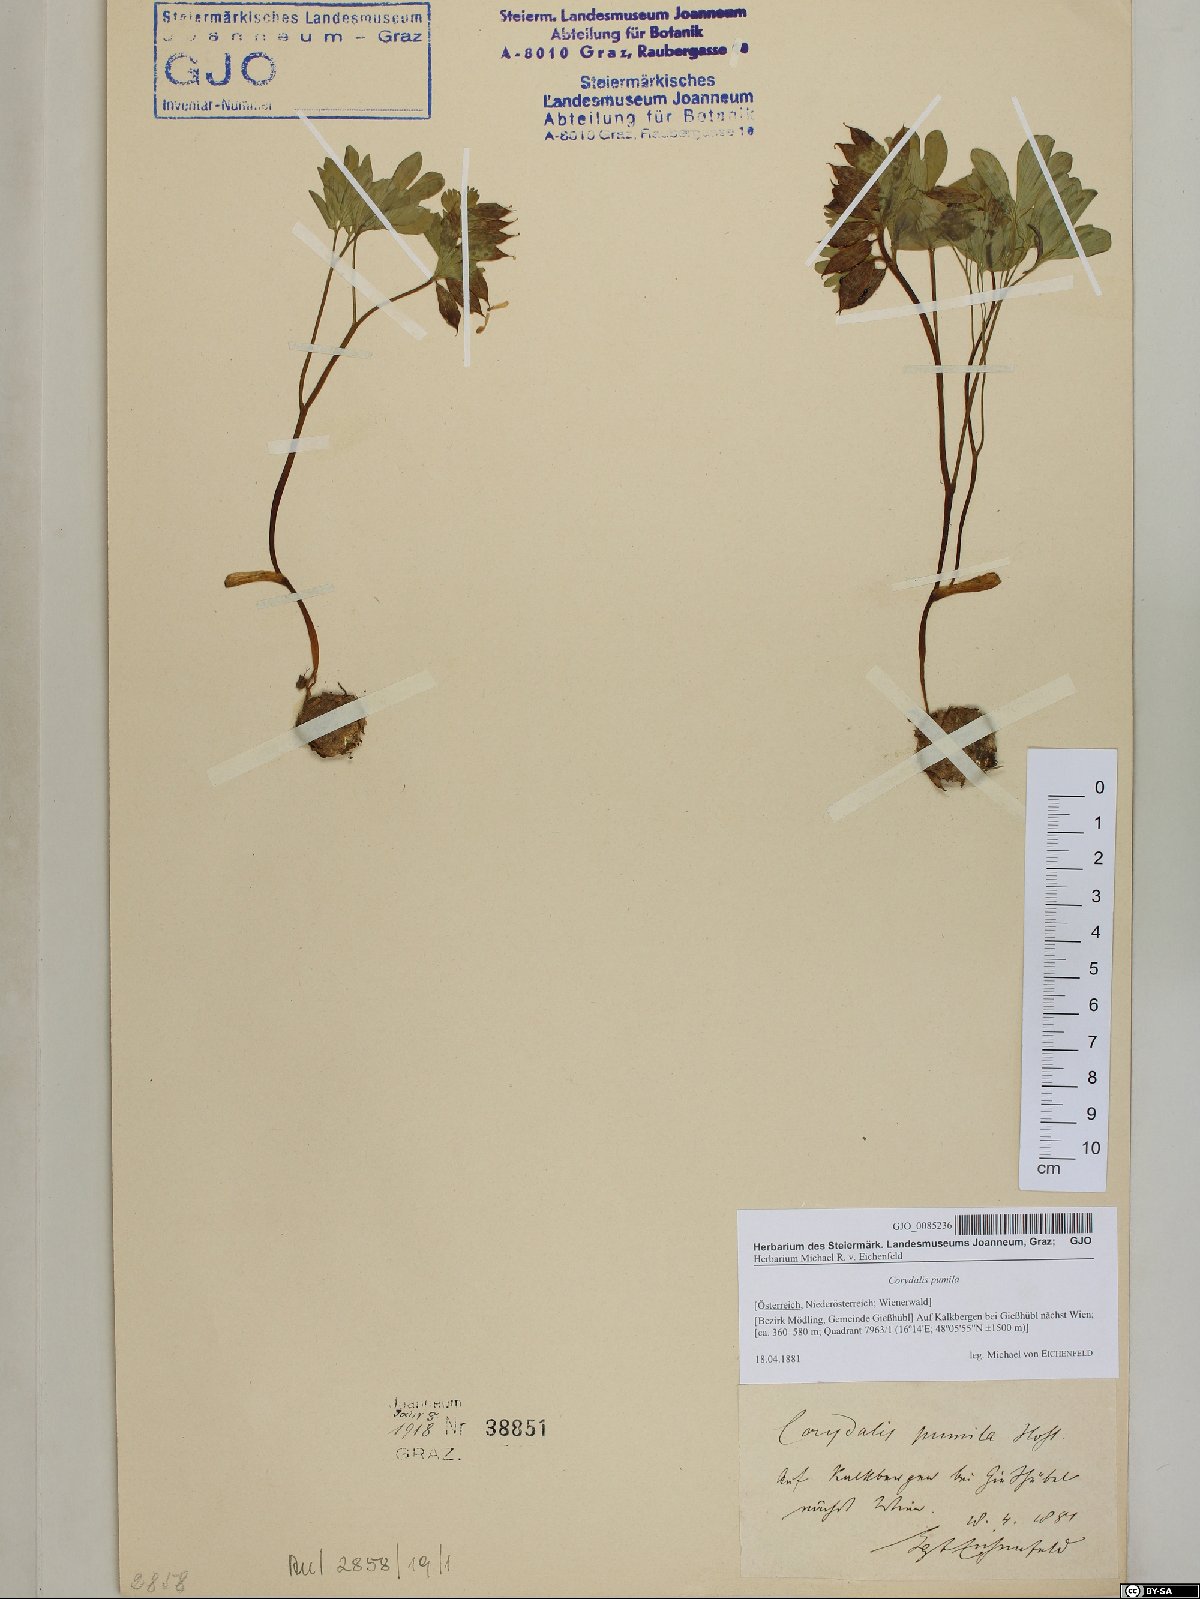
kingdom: Plantae
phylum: Tracheophyta
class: Magnoliopsida
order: Ranunculales
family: Papaveraceae
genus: Corydalis
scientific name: Corydalis pumila
